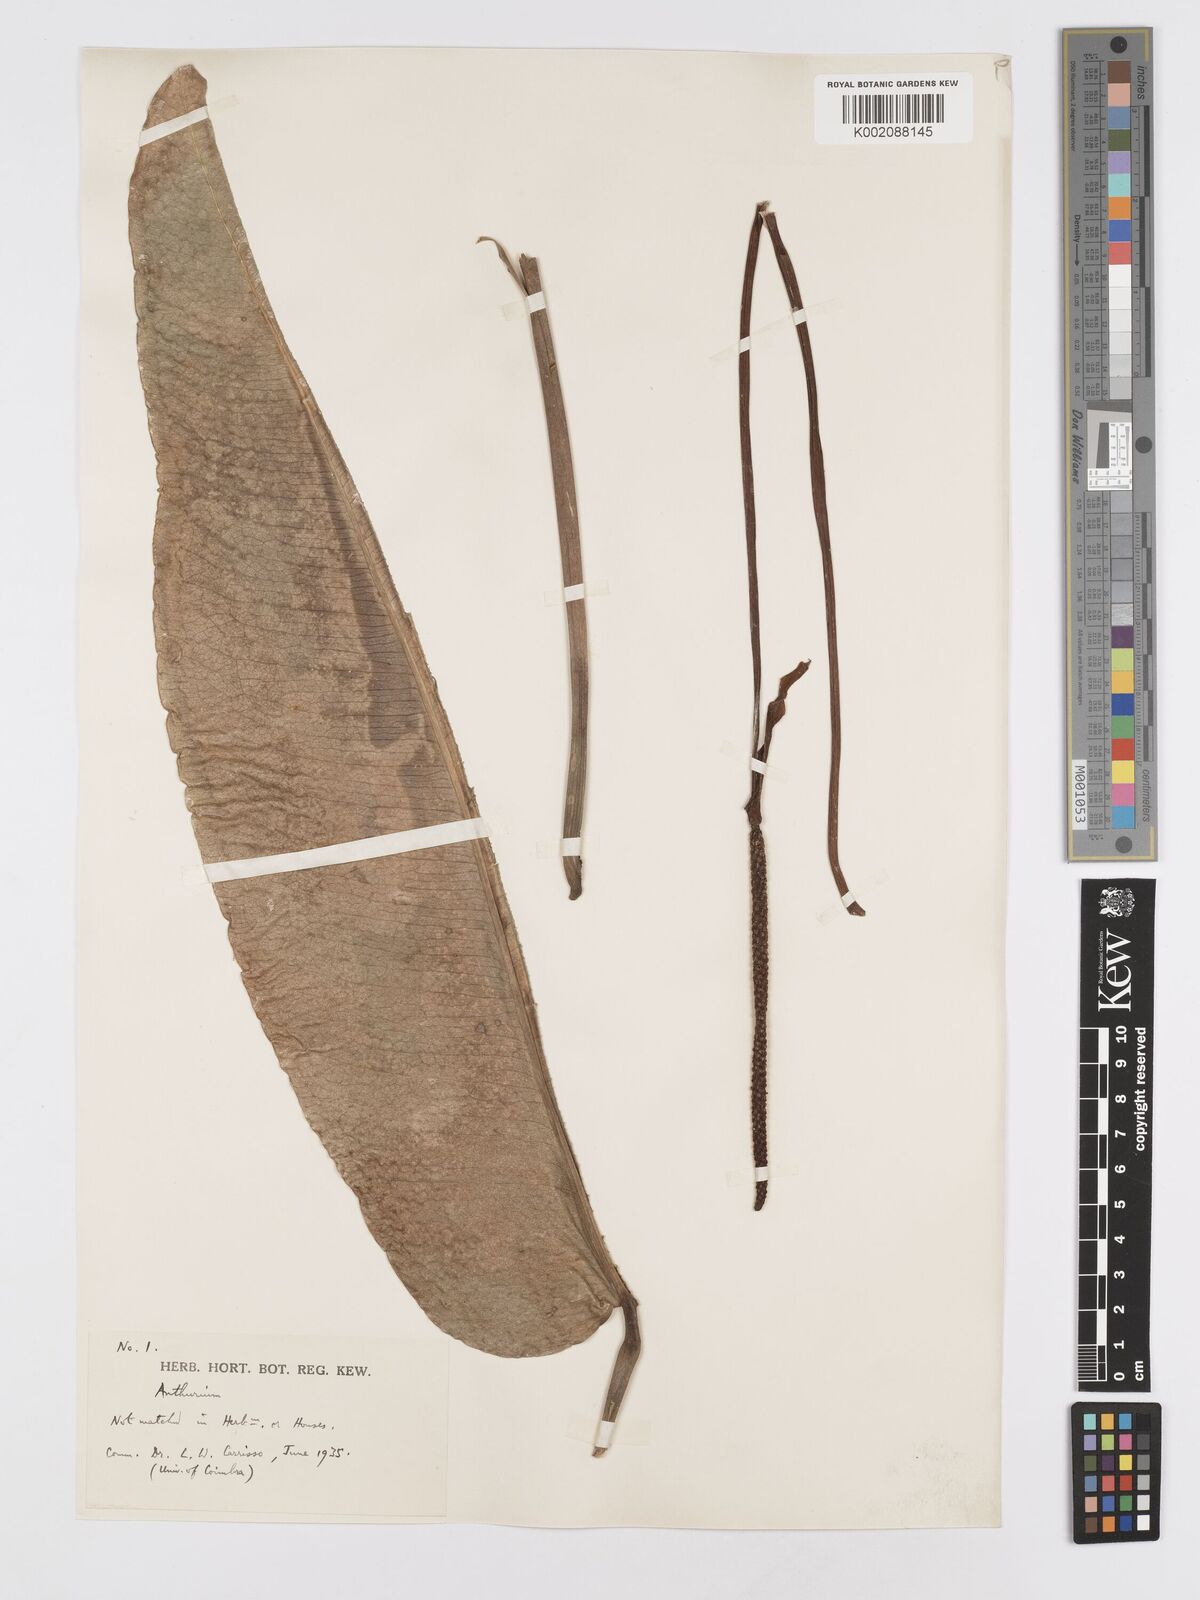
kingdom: Plantae
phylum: Tracheophyta
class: Liliopsida
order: Alismatales
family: Araceae
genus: Anthurium
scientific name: Anthurium
